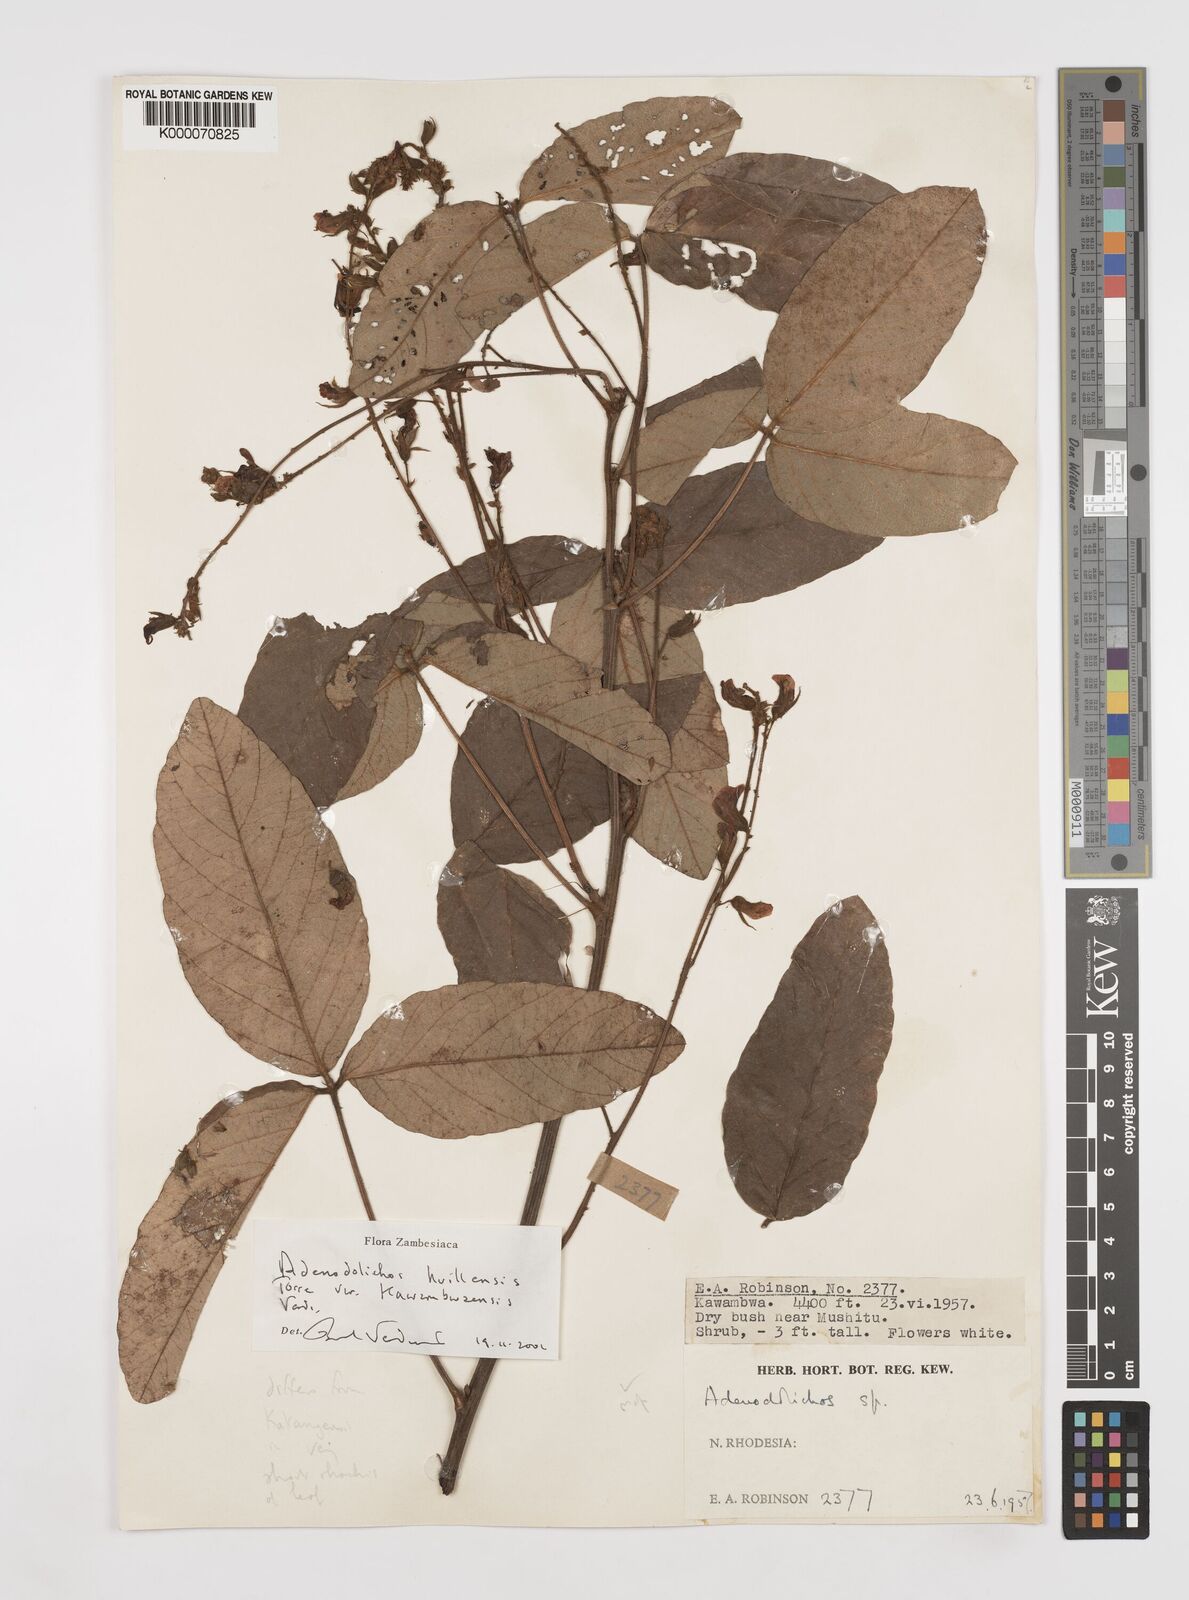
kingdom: Plantae
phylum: Tracheophyta
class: Magnoliopsida
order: Fabales
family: Fabaceae
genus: Adenodolichos
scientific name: Adenodolichos huillensis
